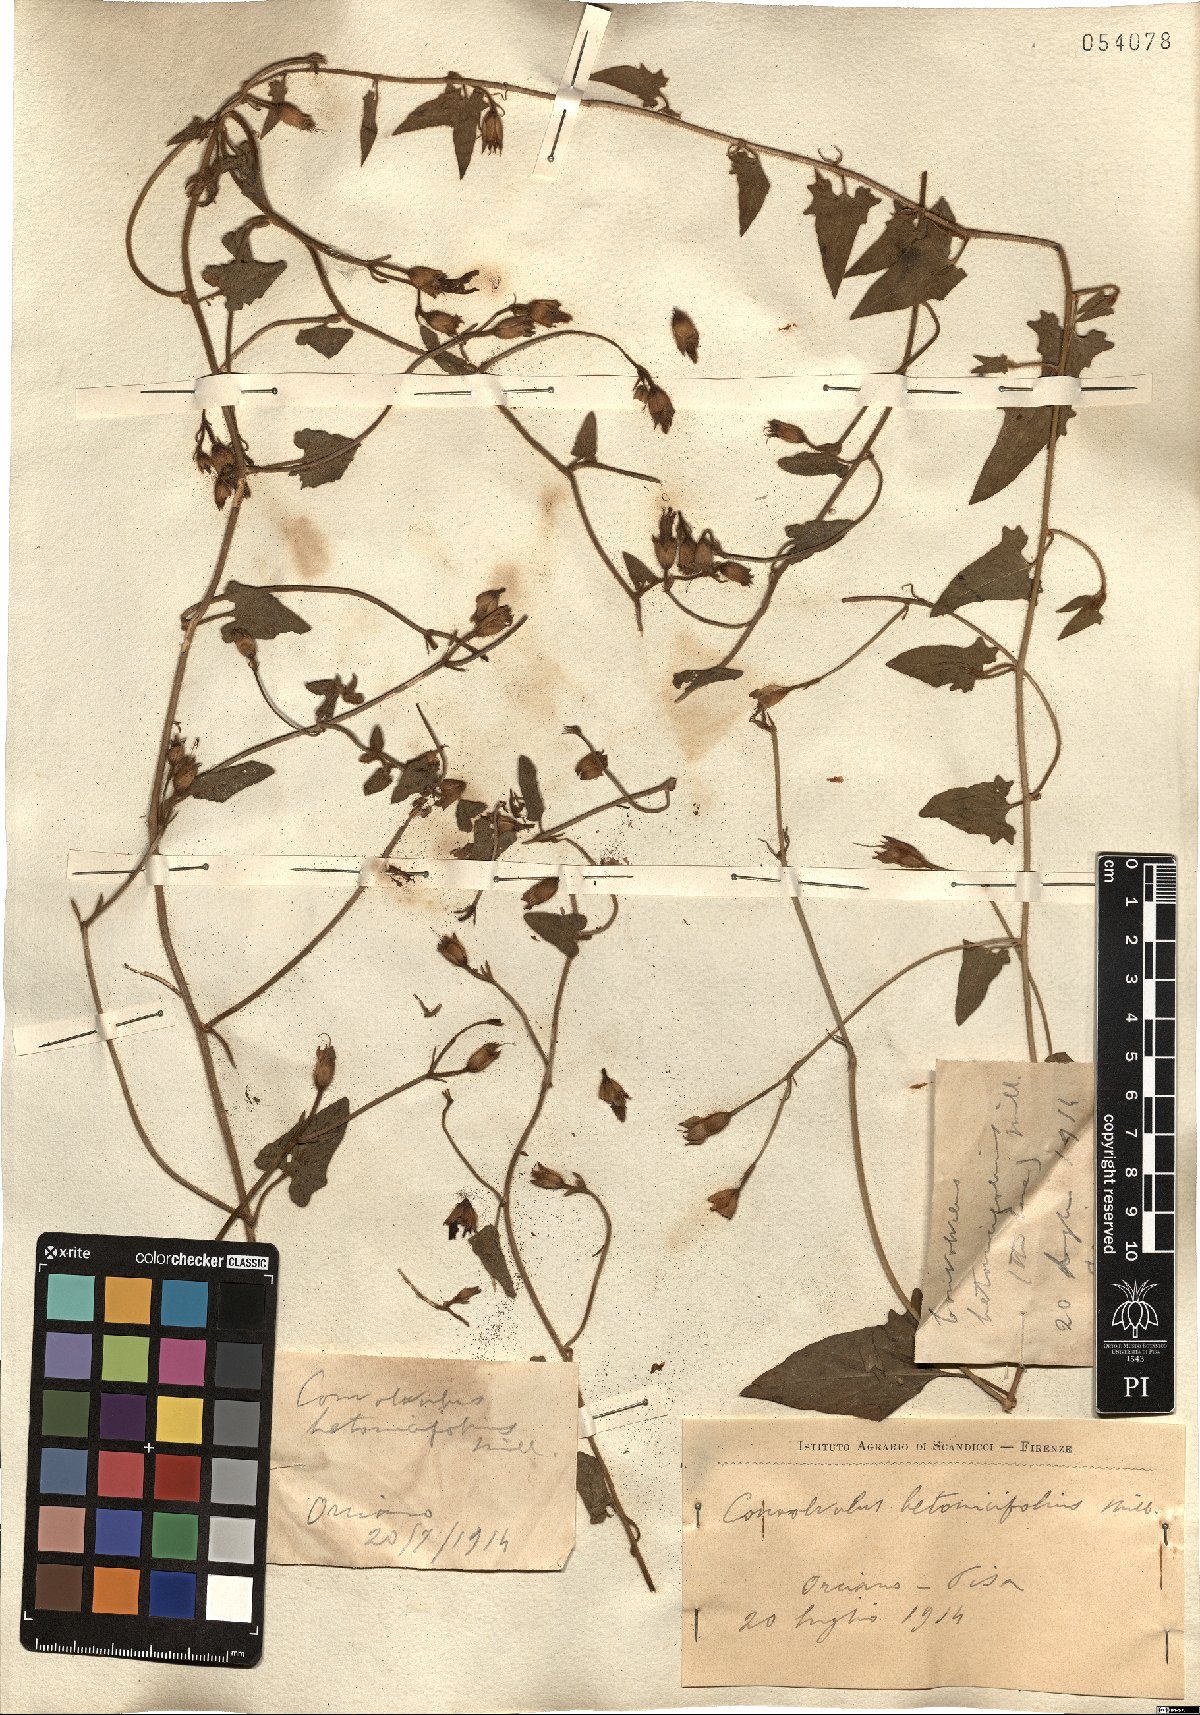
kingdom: Plantae
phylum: Tracheophyta
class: Magnoliopsida
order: Solanales
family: Convolvulaceae
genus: Convolvulus
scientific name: Convolvulus betonicifolius
